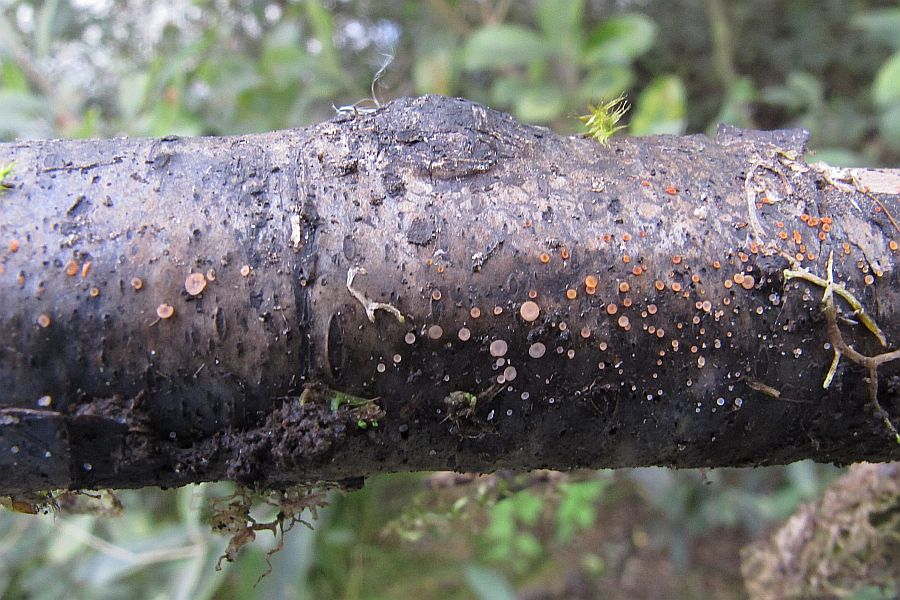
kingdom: Fungi
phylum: Ascomycota
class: Orbiliomycetes
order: Orbiliales
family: Orbiliaceae
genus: Orbilia
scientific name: Orbilia sarraziniana
